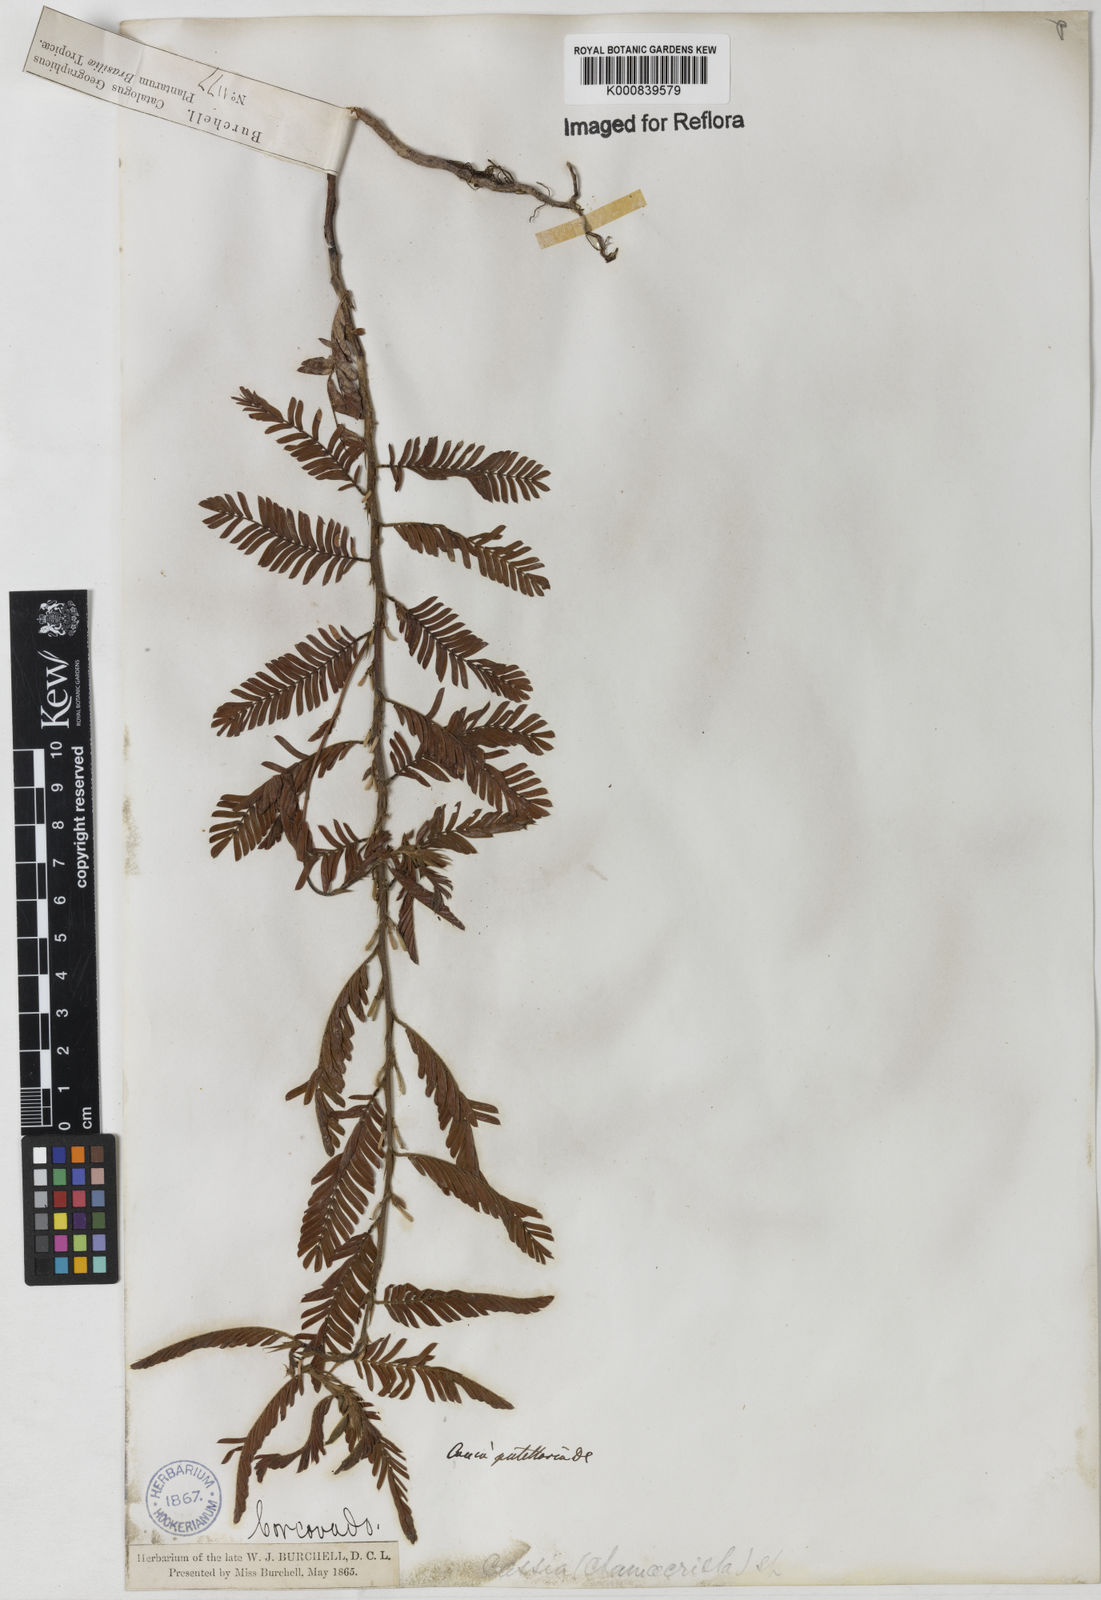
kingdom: Plantae
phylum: Tracheophyta
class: Magnoliopsida
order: Fabales
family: Fabaceae
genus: Chamaecrista
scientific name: Chamaecrista nictitans
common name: Sensitive cassia
